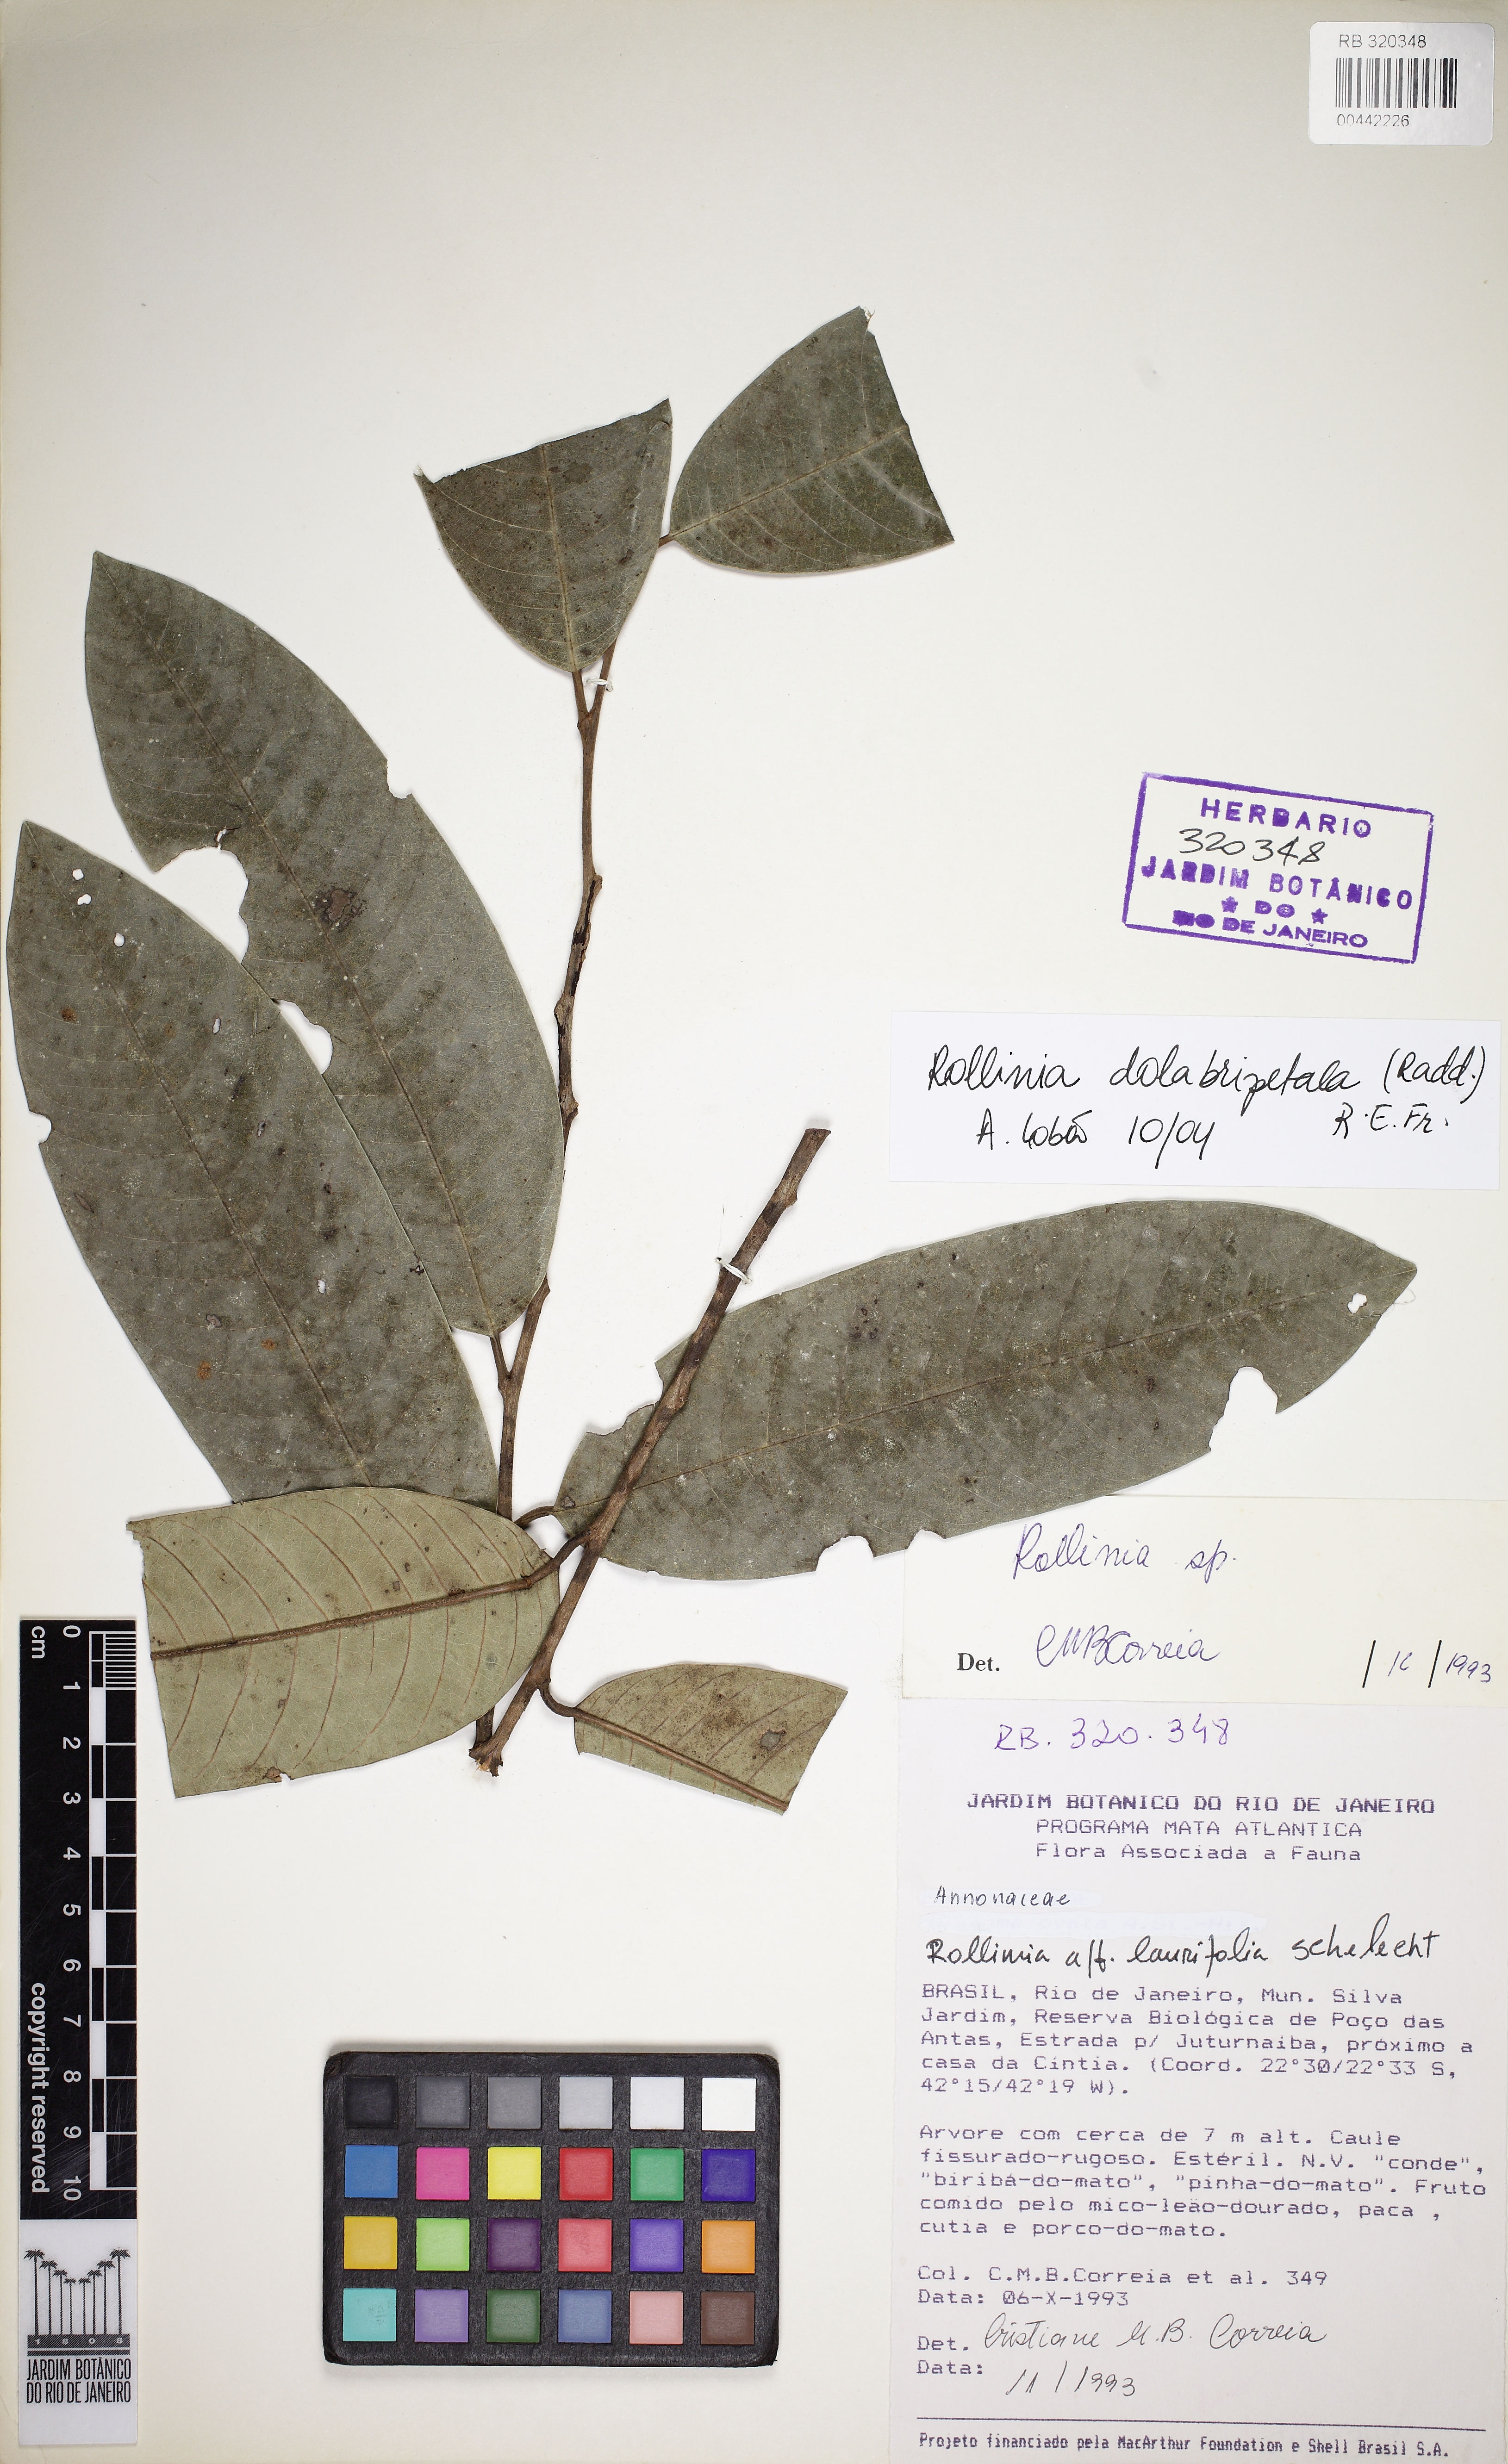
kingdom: Plantae
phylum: Tracheophyta
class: Magnoliopsida
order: Magnoliales
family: Annonaceae
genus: Annona
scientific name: Annona dolabripetala
